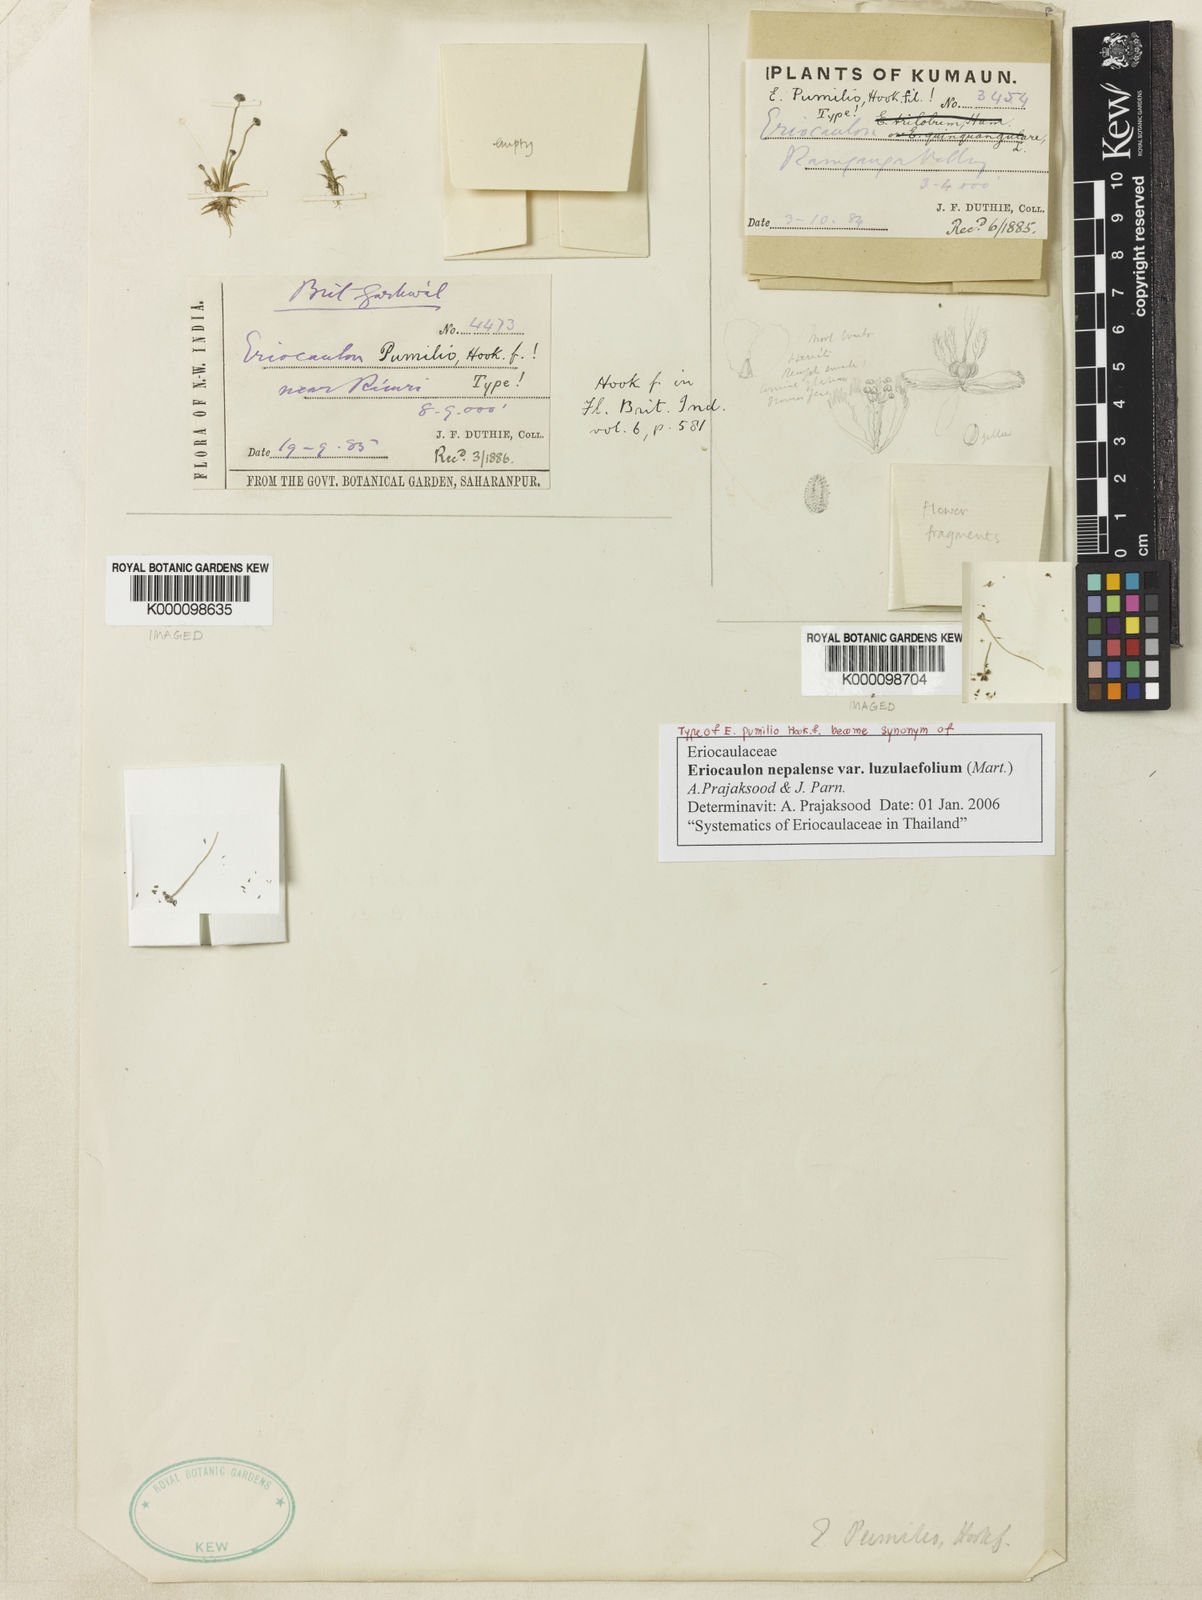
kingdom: Plantae
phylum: Tracheophyta
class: Liliopsida
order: Poales
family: Eriocaulaceae
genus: Eriocaulon
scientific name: Eriocaulon nepalense
